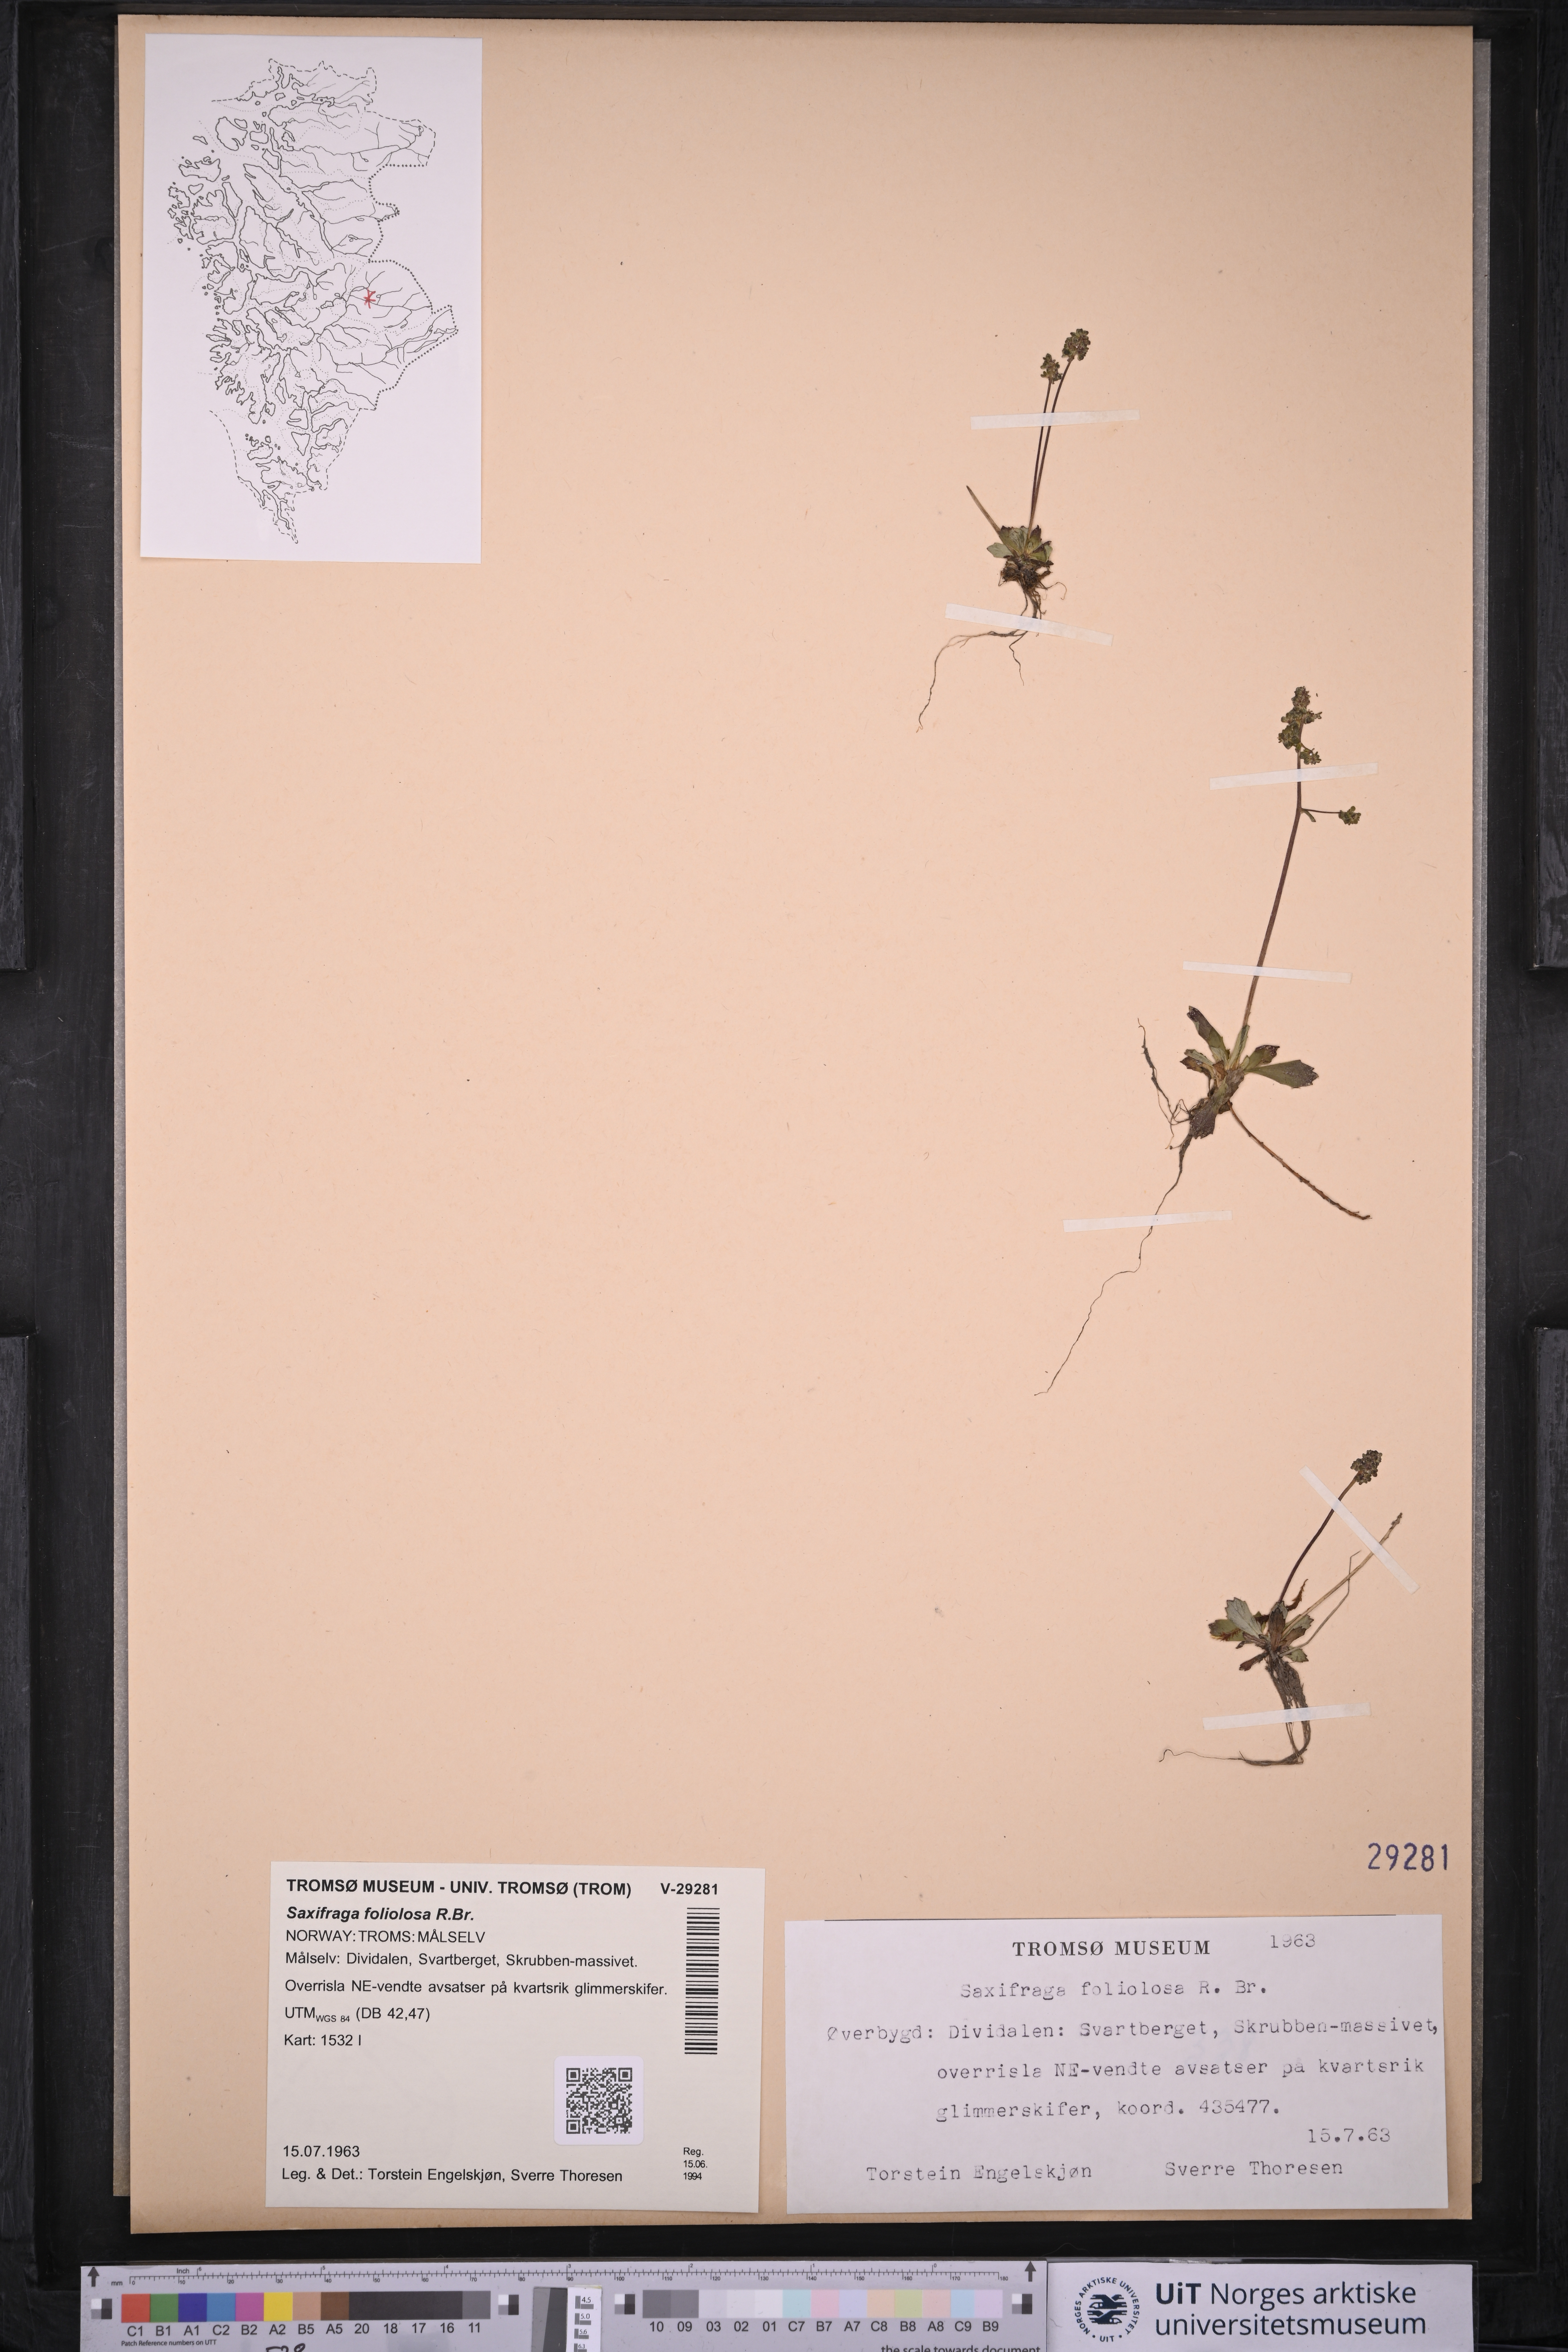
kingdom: Plantae
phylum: Tracheophyta
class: Magnoliopsida
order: Saxifragales
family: Saxifragaceae
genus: Micranthes
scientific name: Micranthes foliolosa
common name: Leafystem saxifrage
